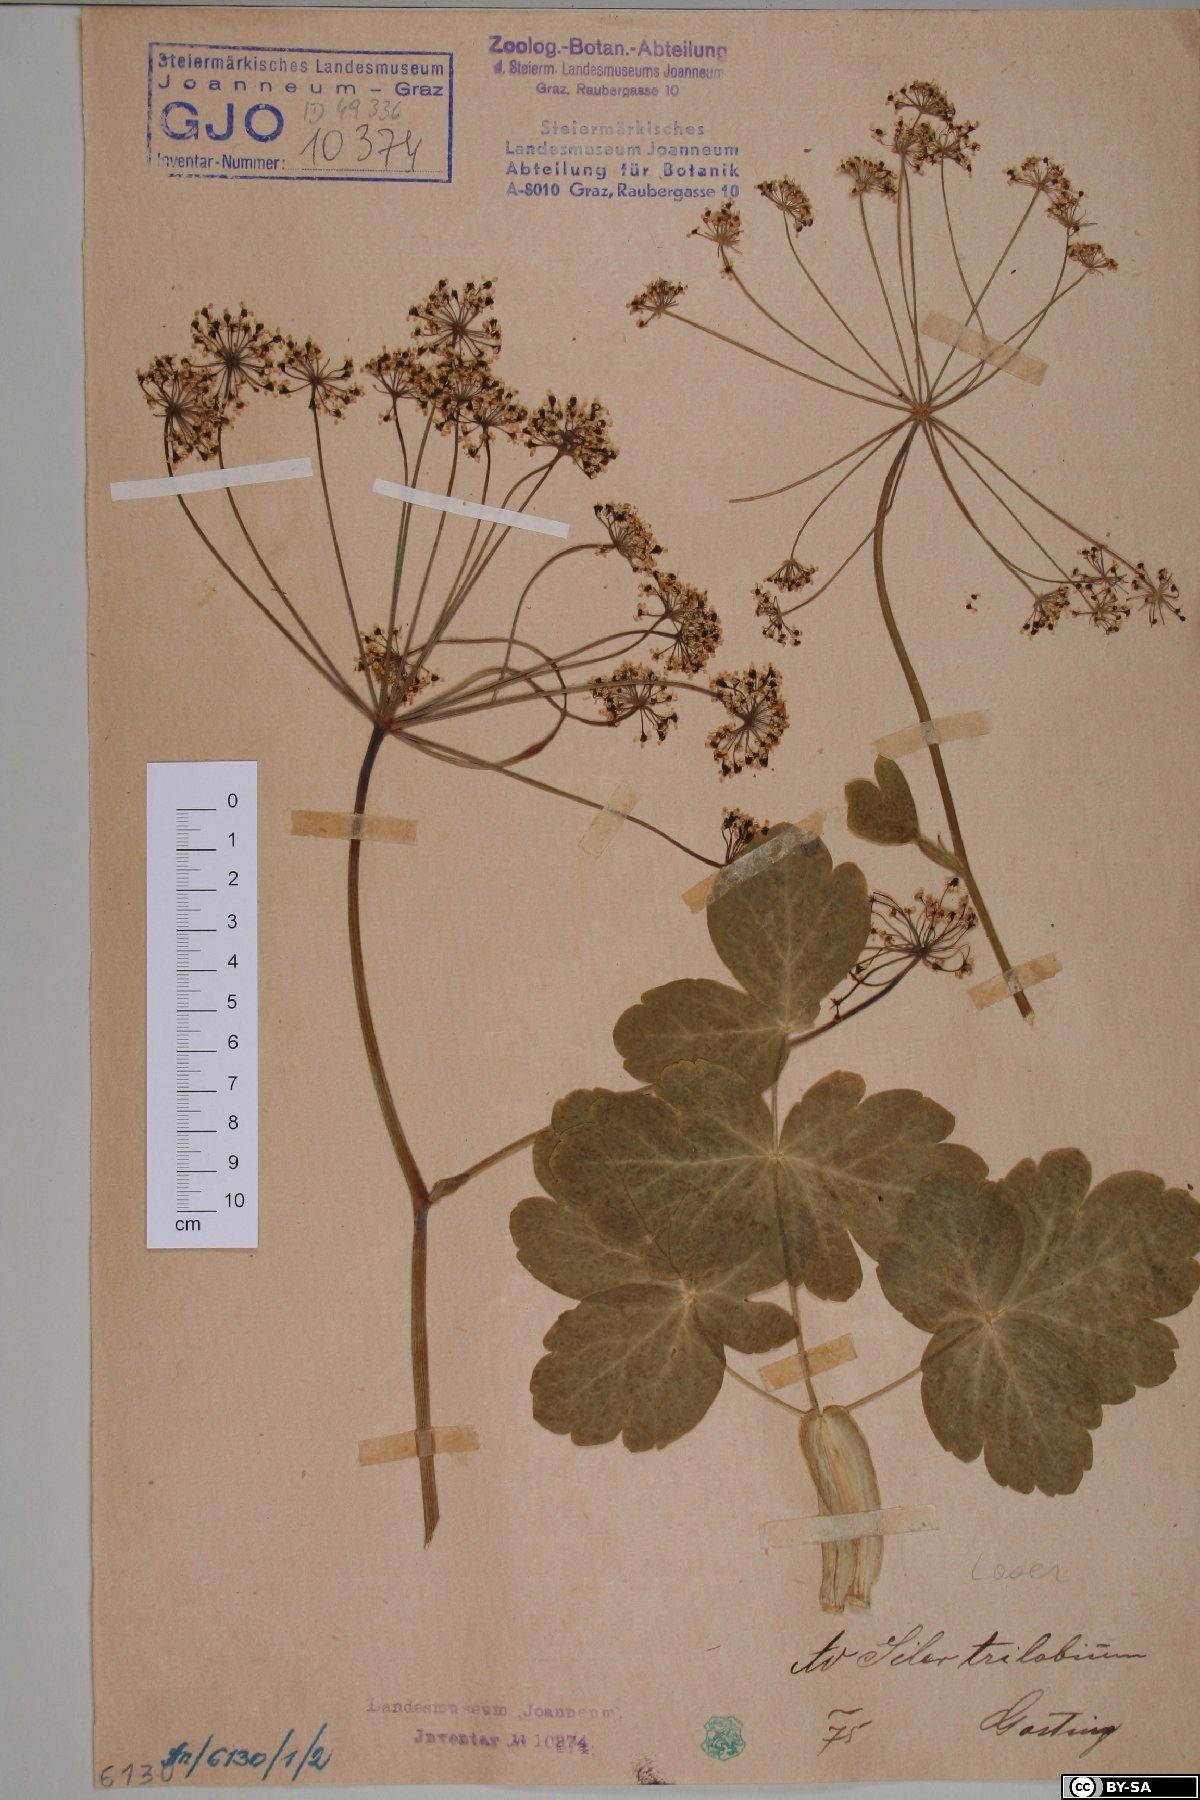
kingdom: Plantae
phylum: Tracheophyta
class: Magnoliopsida
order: Apiales
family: Apiaceae
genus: Laser
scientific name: Laser trilobum
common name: Laser
